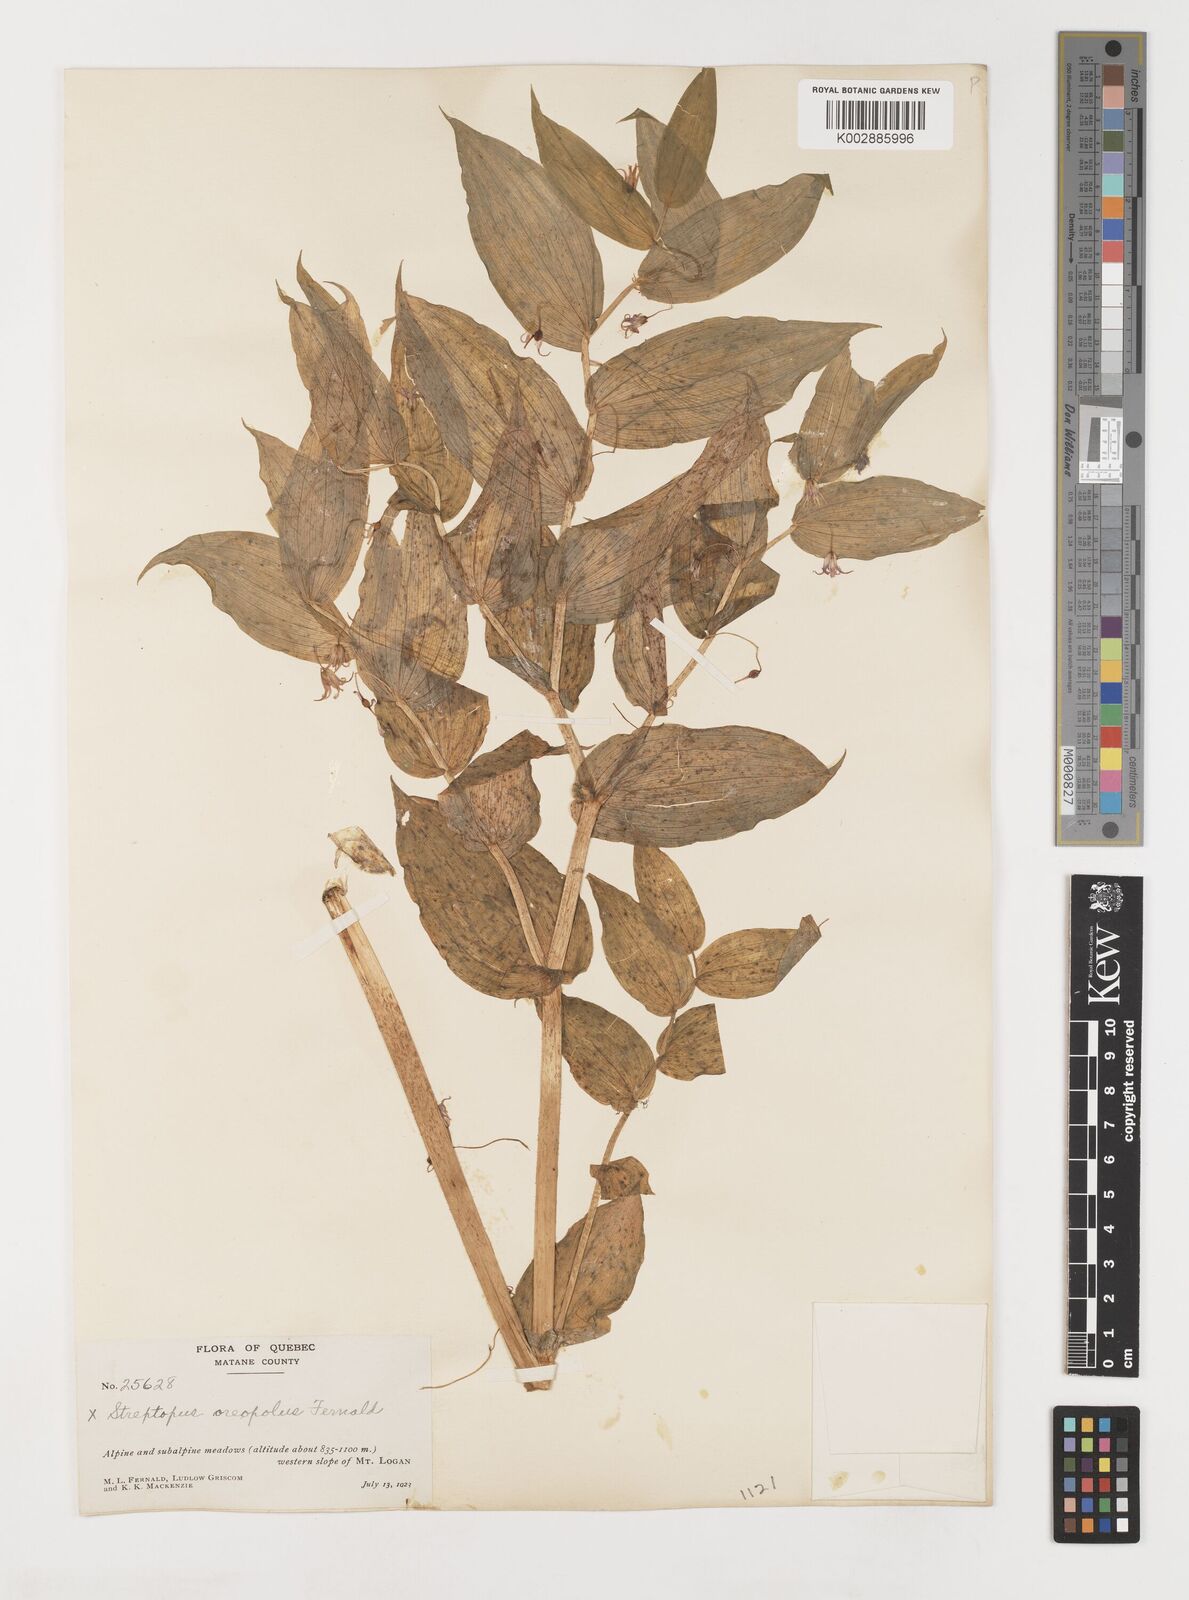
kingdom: Plantae
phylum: Tracheophyta
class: Liliopsida
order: Liliales
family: Liliaceae
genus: Streptopus
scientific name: Streptopus oreopolus
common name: Hybrid twisted-stalk
